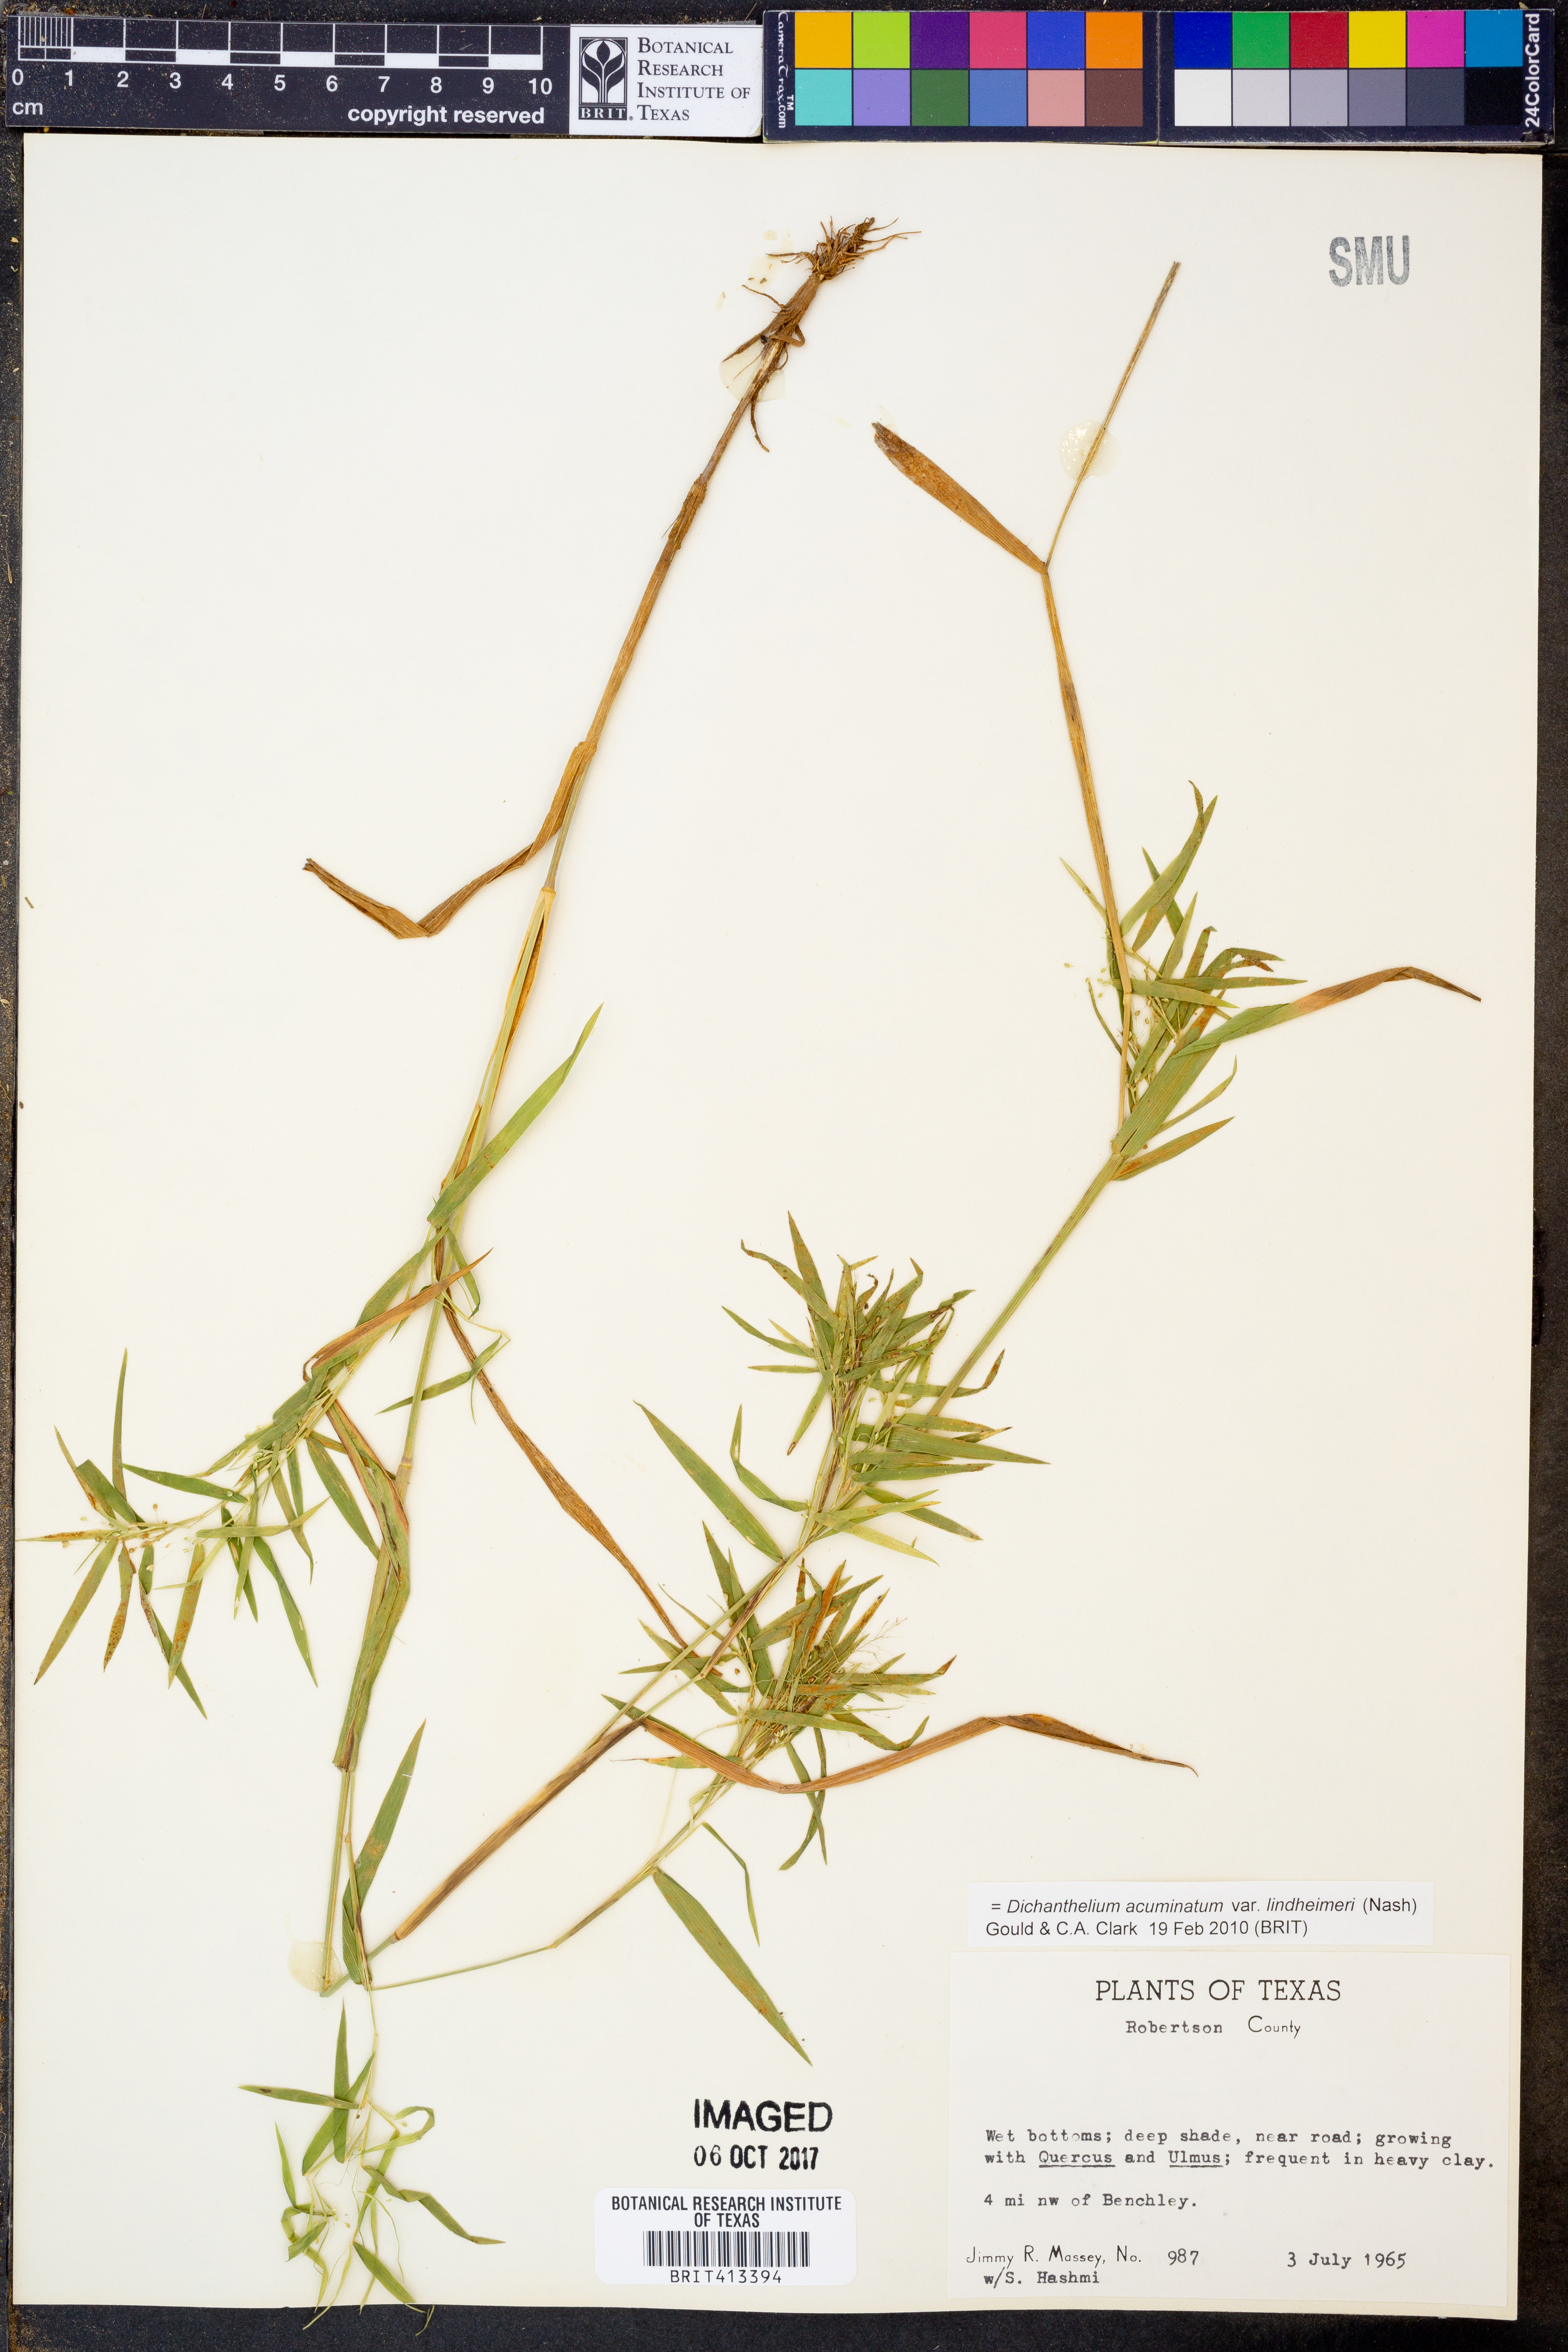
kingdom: Plantae
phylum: Tracheophyta
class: Liliopsida
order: Poales
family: Poaceae
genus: Dichanthelium
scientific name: Dichanthelium lindheimeri
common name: Lindheimer's panicgrass
